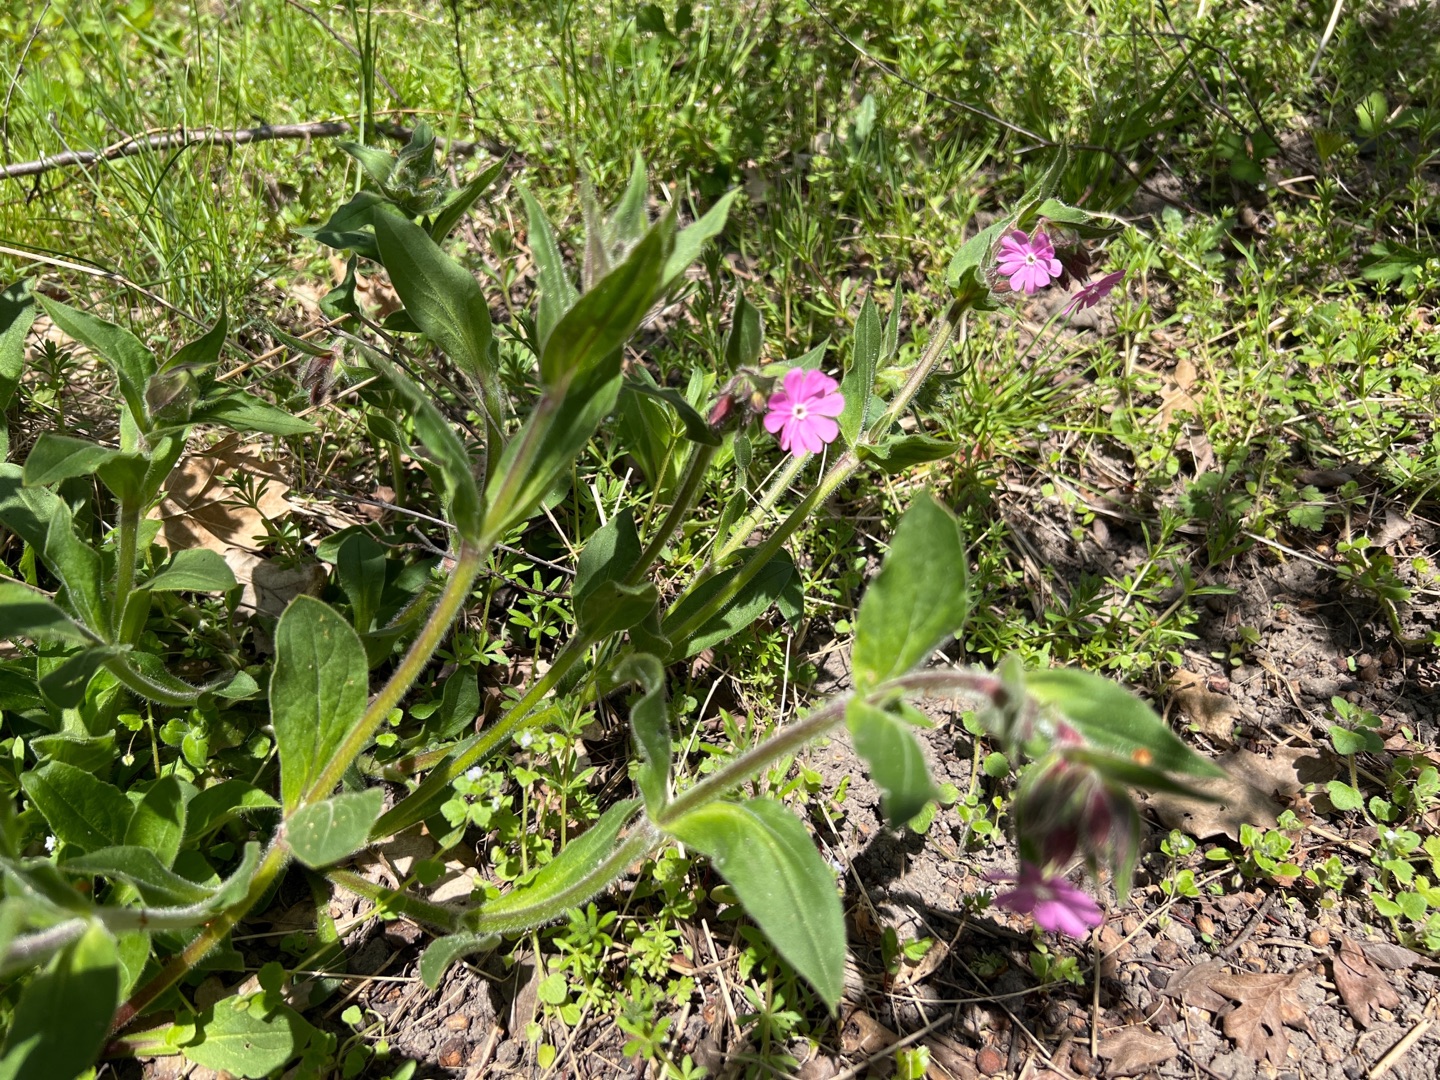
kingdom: Plantae
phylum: Tracheophyta
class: Magnoliopsida
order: Caryophyllales
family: Caryophyllaceae
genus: Silene
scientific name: Silene dioica
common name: Dagpragtstjerne
